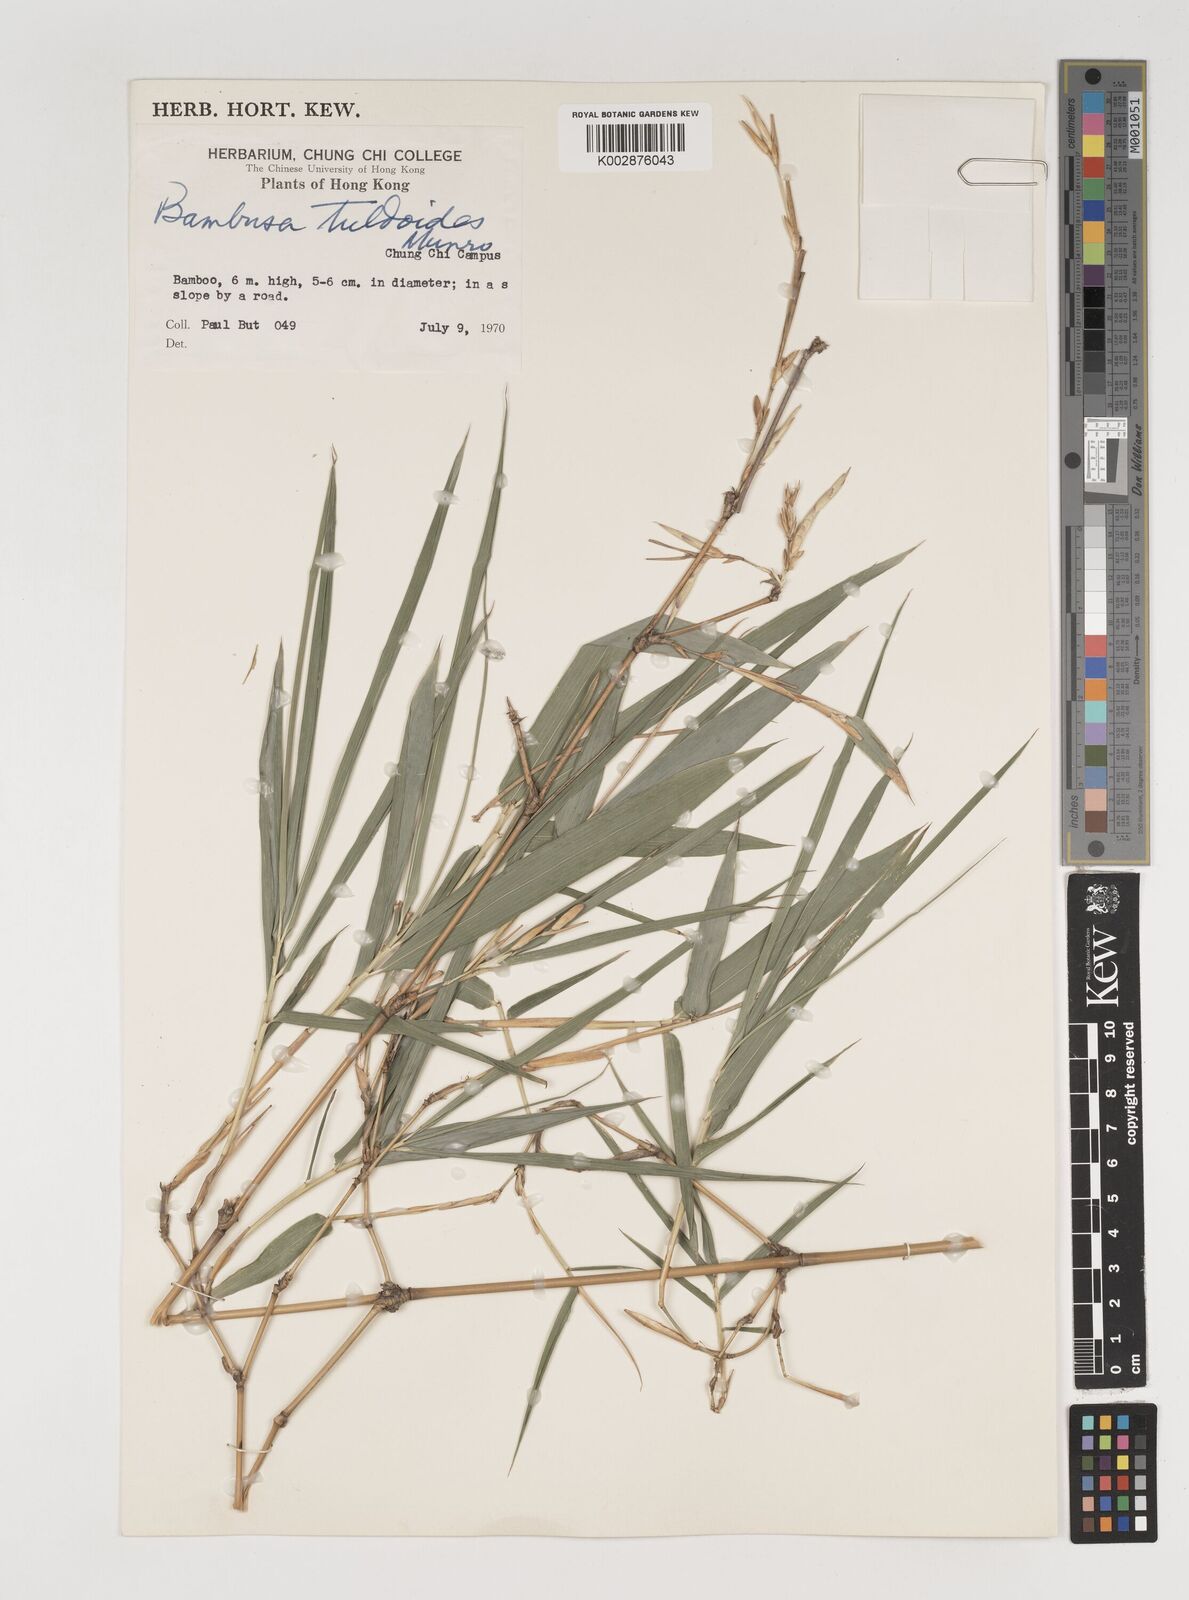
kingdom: Plantae
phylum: Tracheophyta
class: Liliopsida
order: Poales
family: Poaceae
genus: Bambusa
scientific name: Bambusa tuldoides
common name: Verdant bamboo
